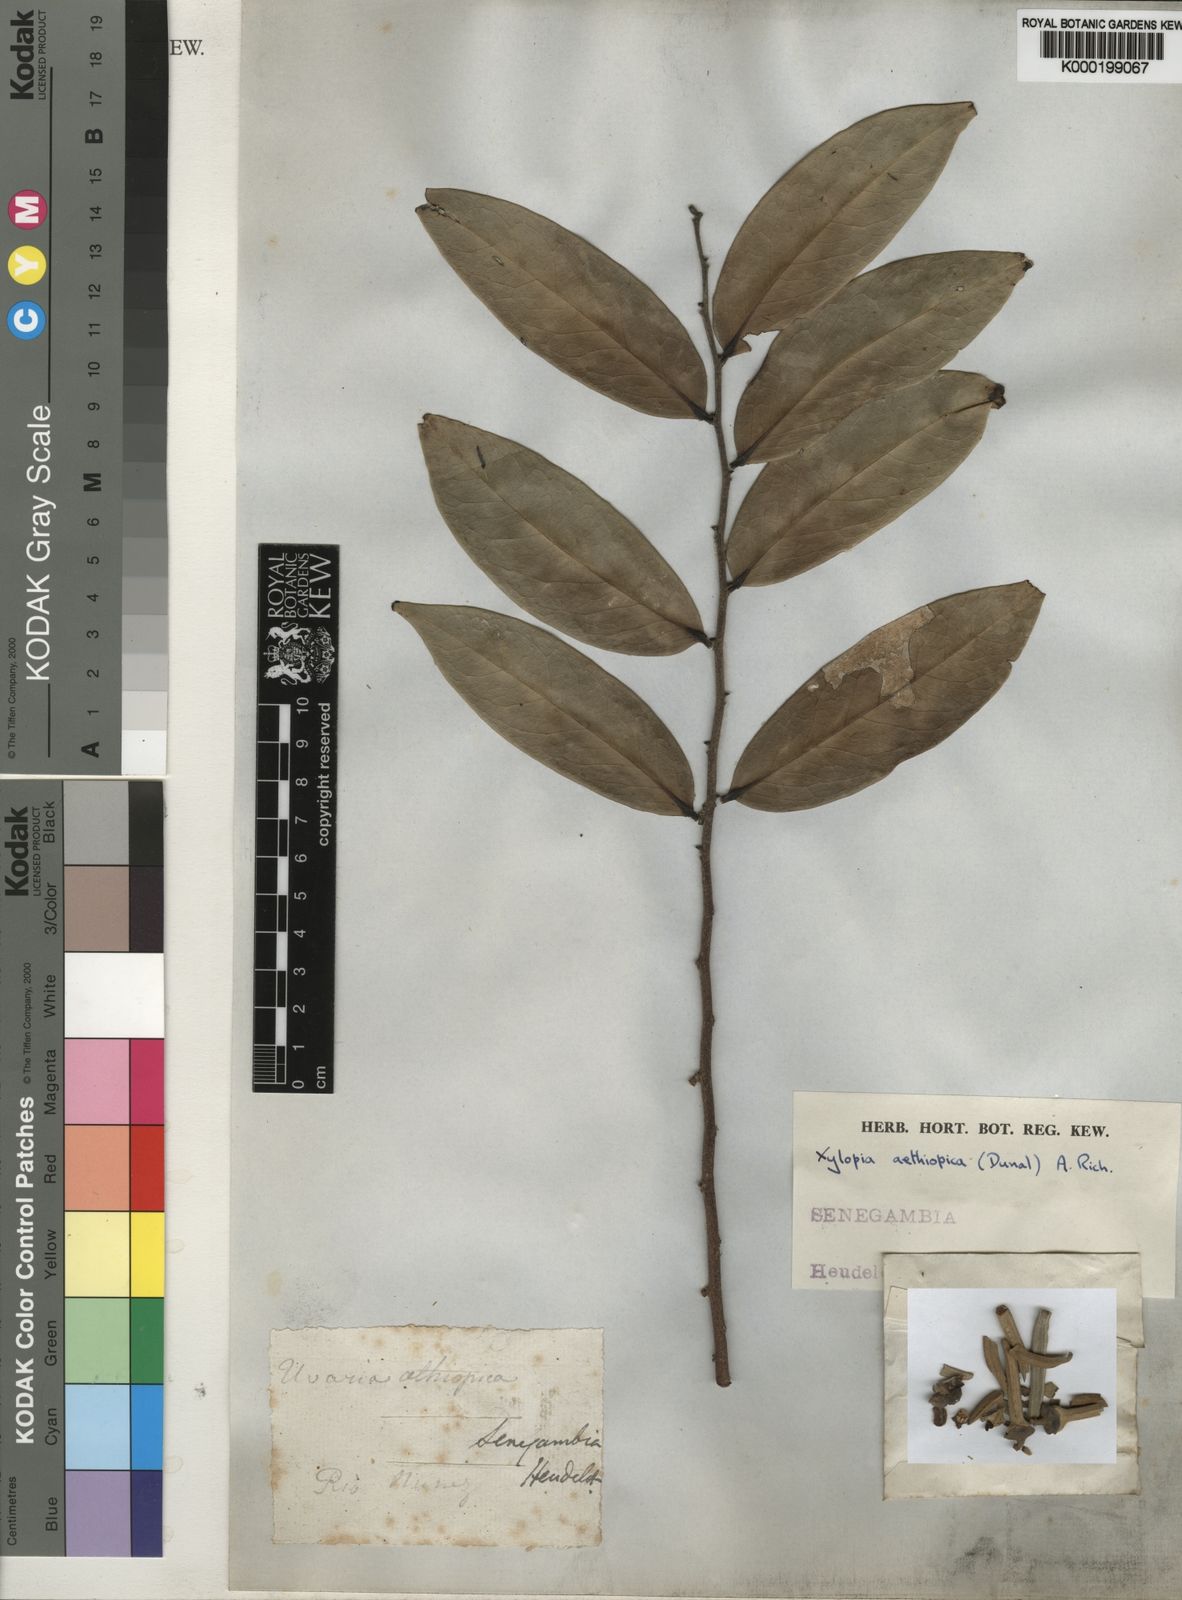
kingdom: Plantae
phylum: Tracheophyta
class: Magnoliopsida
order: Magnoliales
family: Annonaceae
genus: Xylopia
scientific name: Xylopia aethiopica
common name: Ethiopian-pepper
